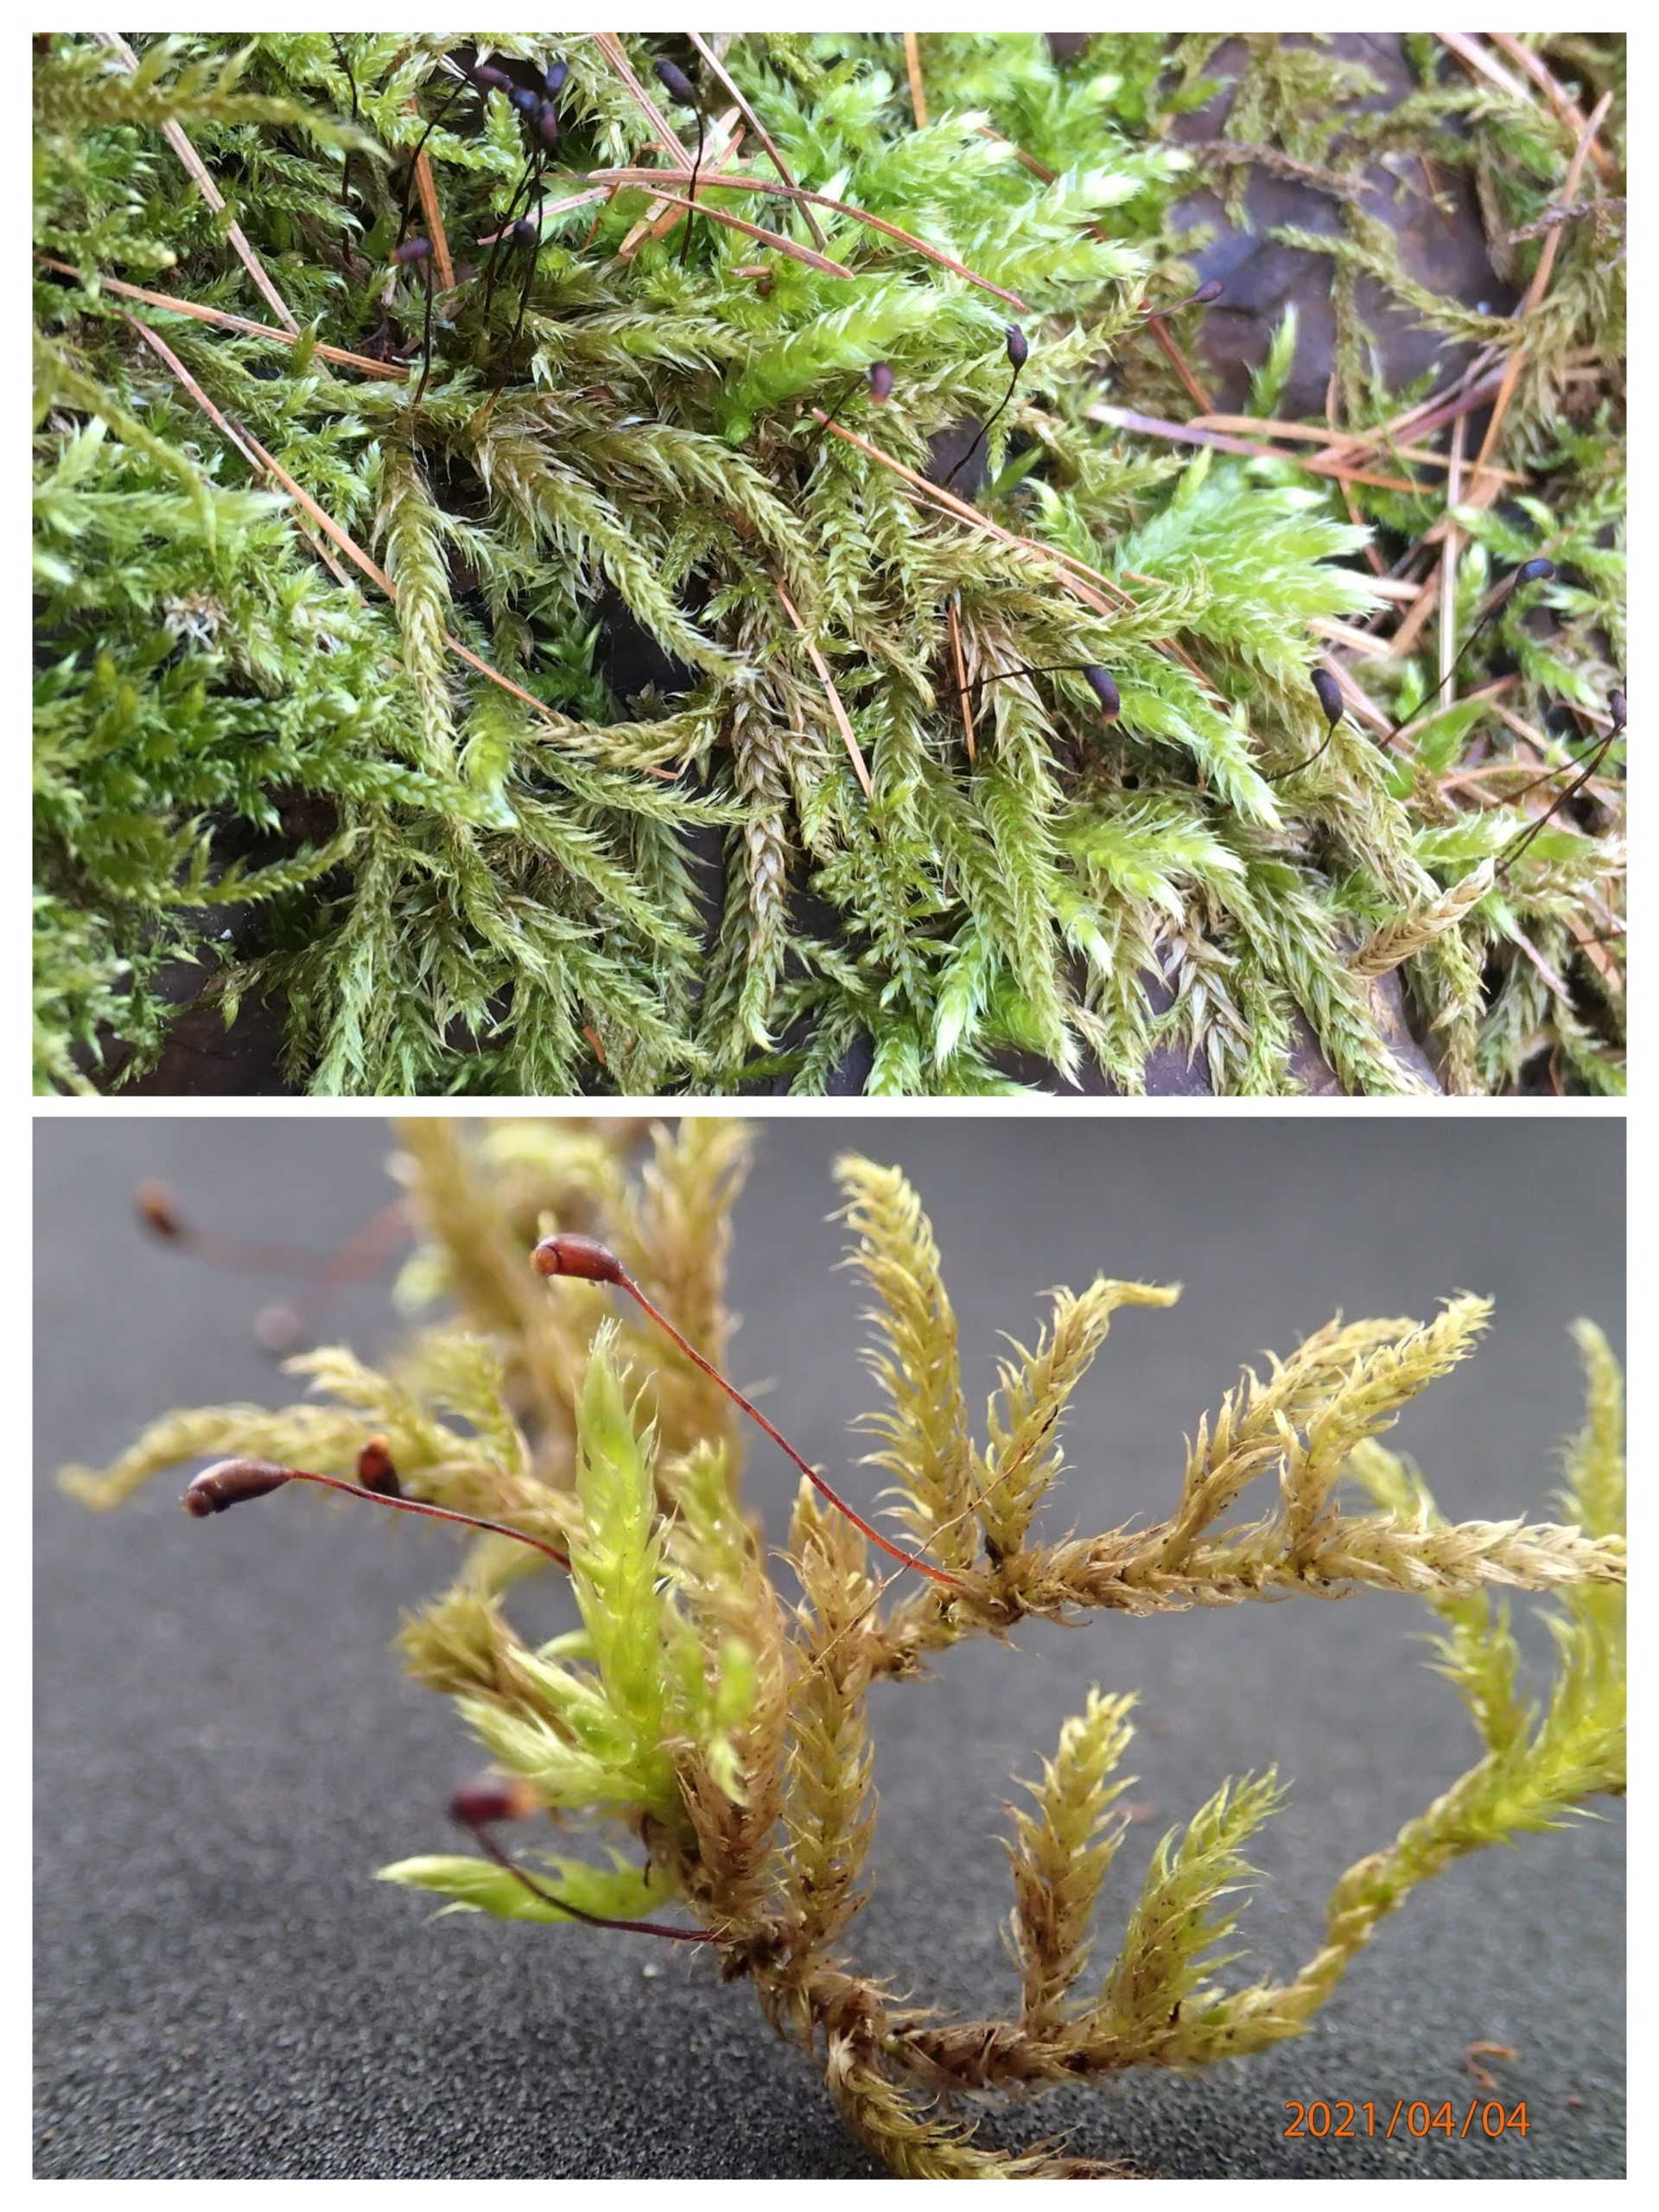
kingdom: Plantae
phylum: Bryophyta
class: Bryopsida
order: Hypnales
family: Brachytheciaceae
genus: Brachythecium
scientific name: Brachythecium salebrosum
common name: Skov-kortkapsel
